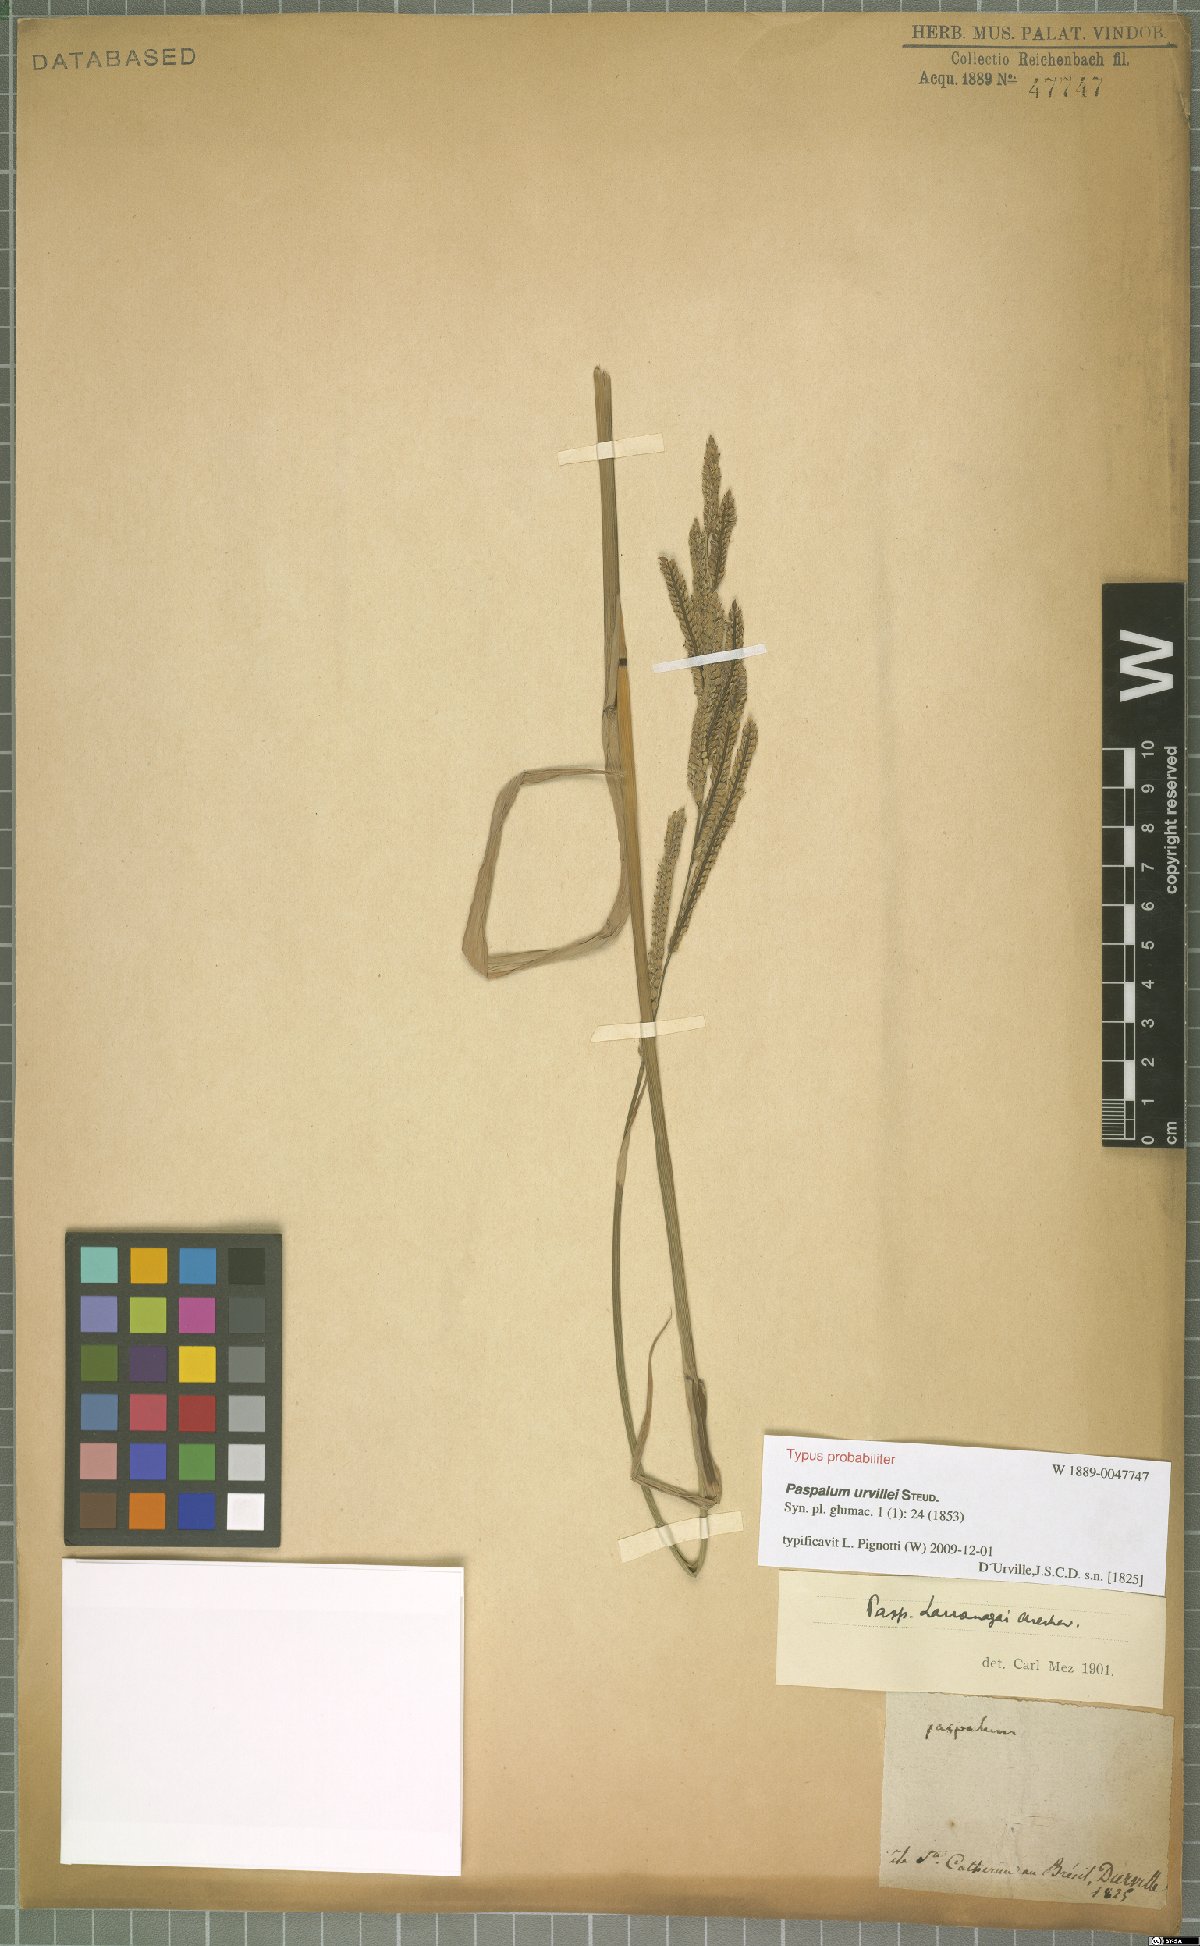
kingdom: Plantae
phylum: Tracheophyta
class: Liliopsida
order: Poales
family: Poaceae
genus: Paspalum
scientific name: Paspalum urvillei
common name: Vasey's grass
